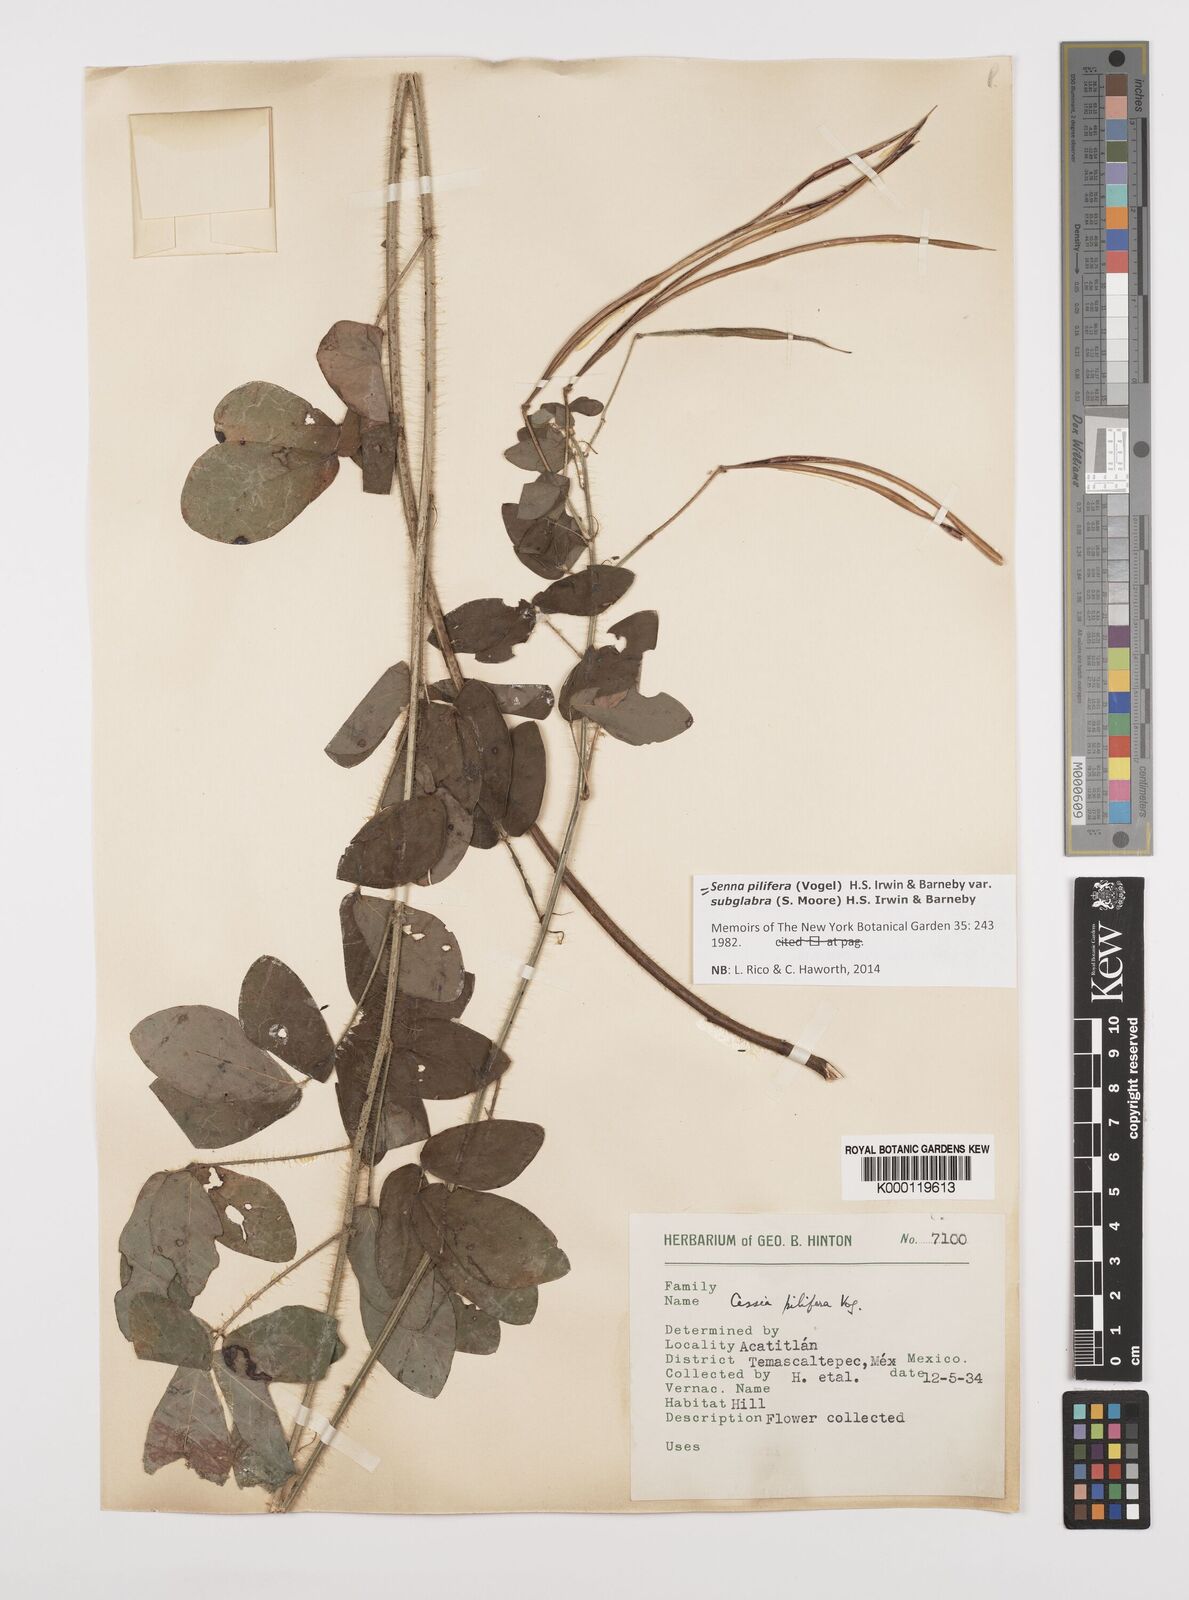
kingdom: Plantae
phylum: Tracheophyta
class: Magnoliopsida
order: Fabales
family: Fabaceae
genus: Senna
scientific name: Senna pilifera
